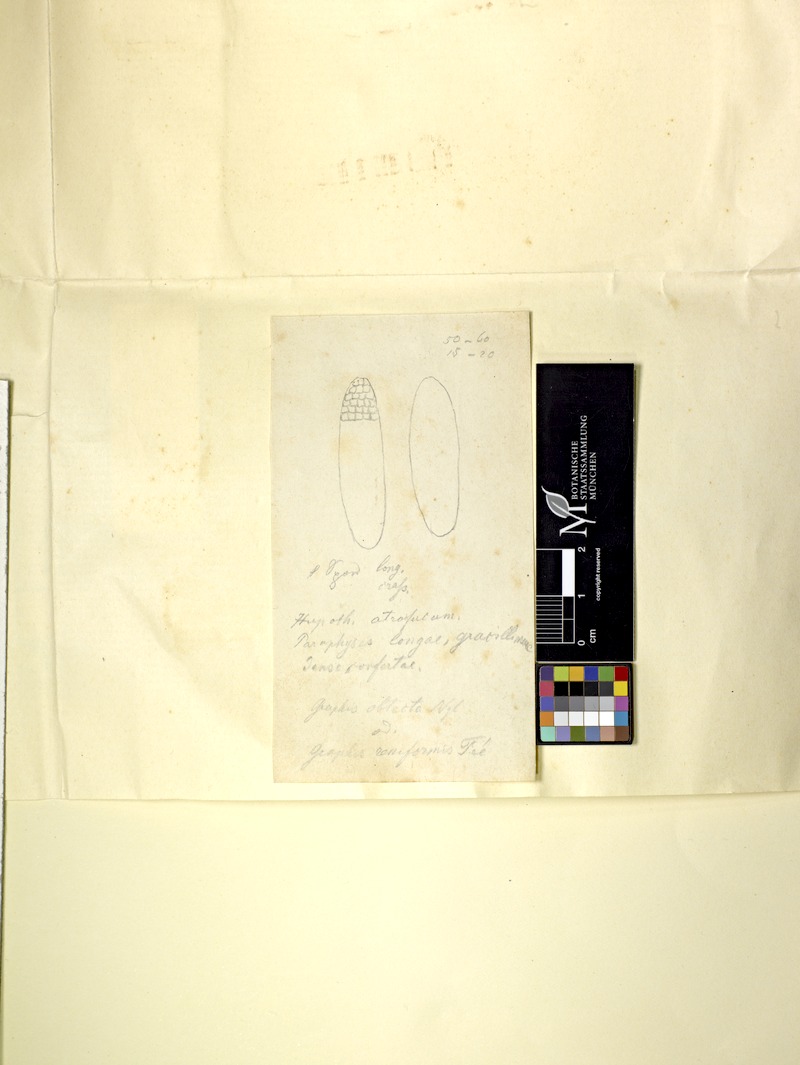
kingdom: Fungi
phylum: Ascomycota
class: Lecanoromycetes
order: Ostropales
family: Graphidaceae
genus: Diorygma
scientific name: Diorygma megasporum
